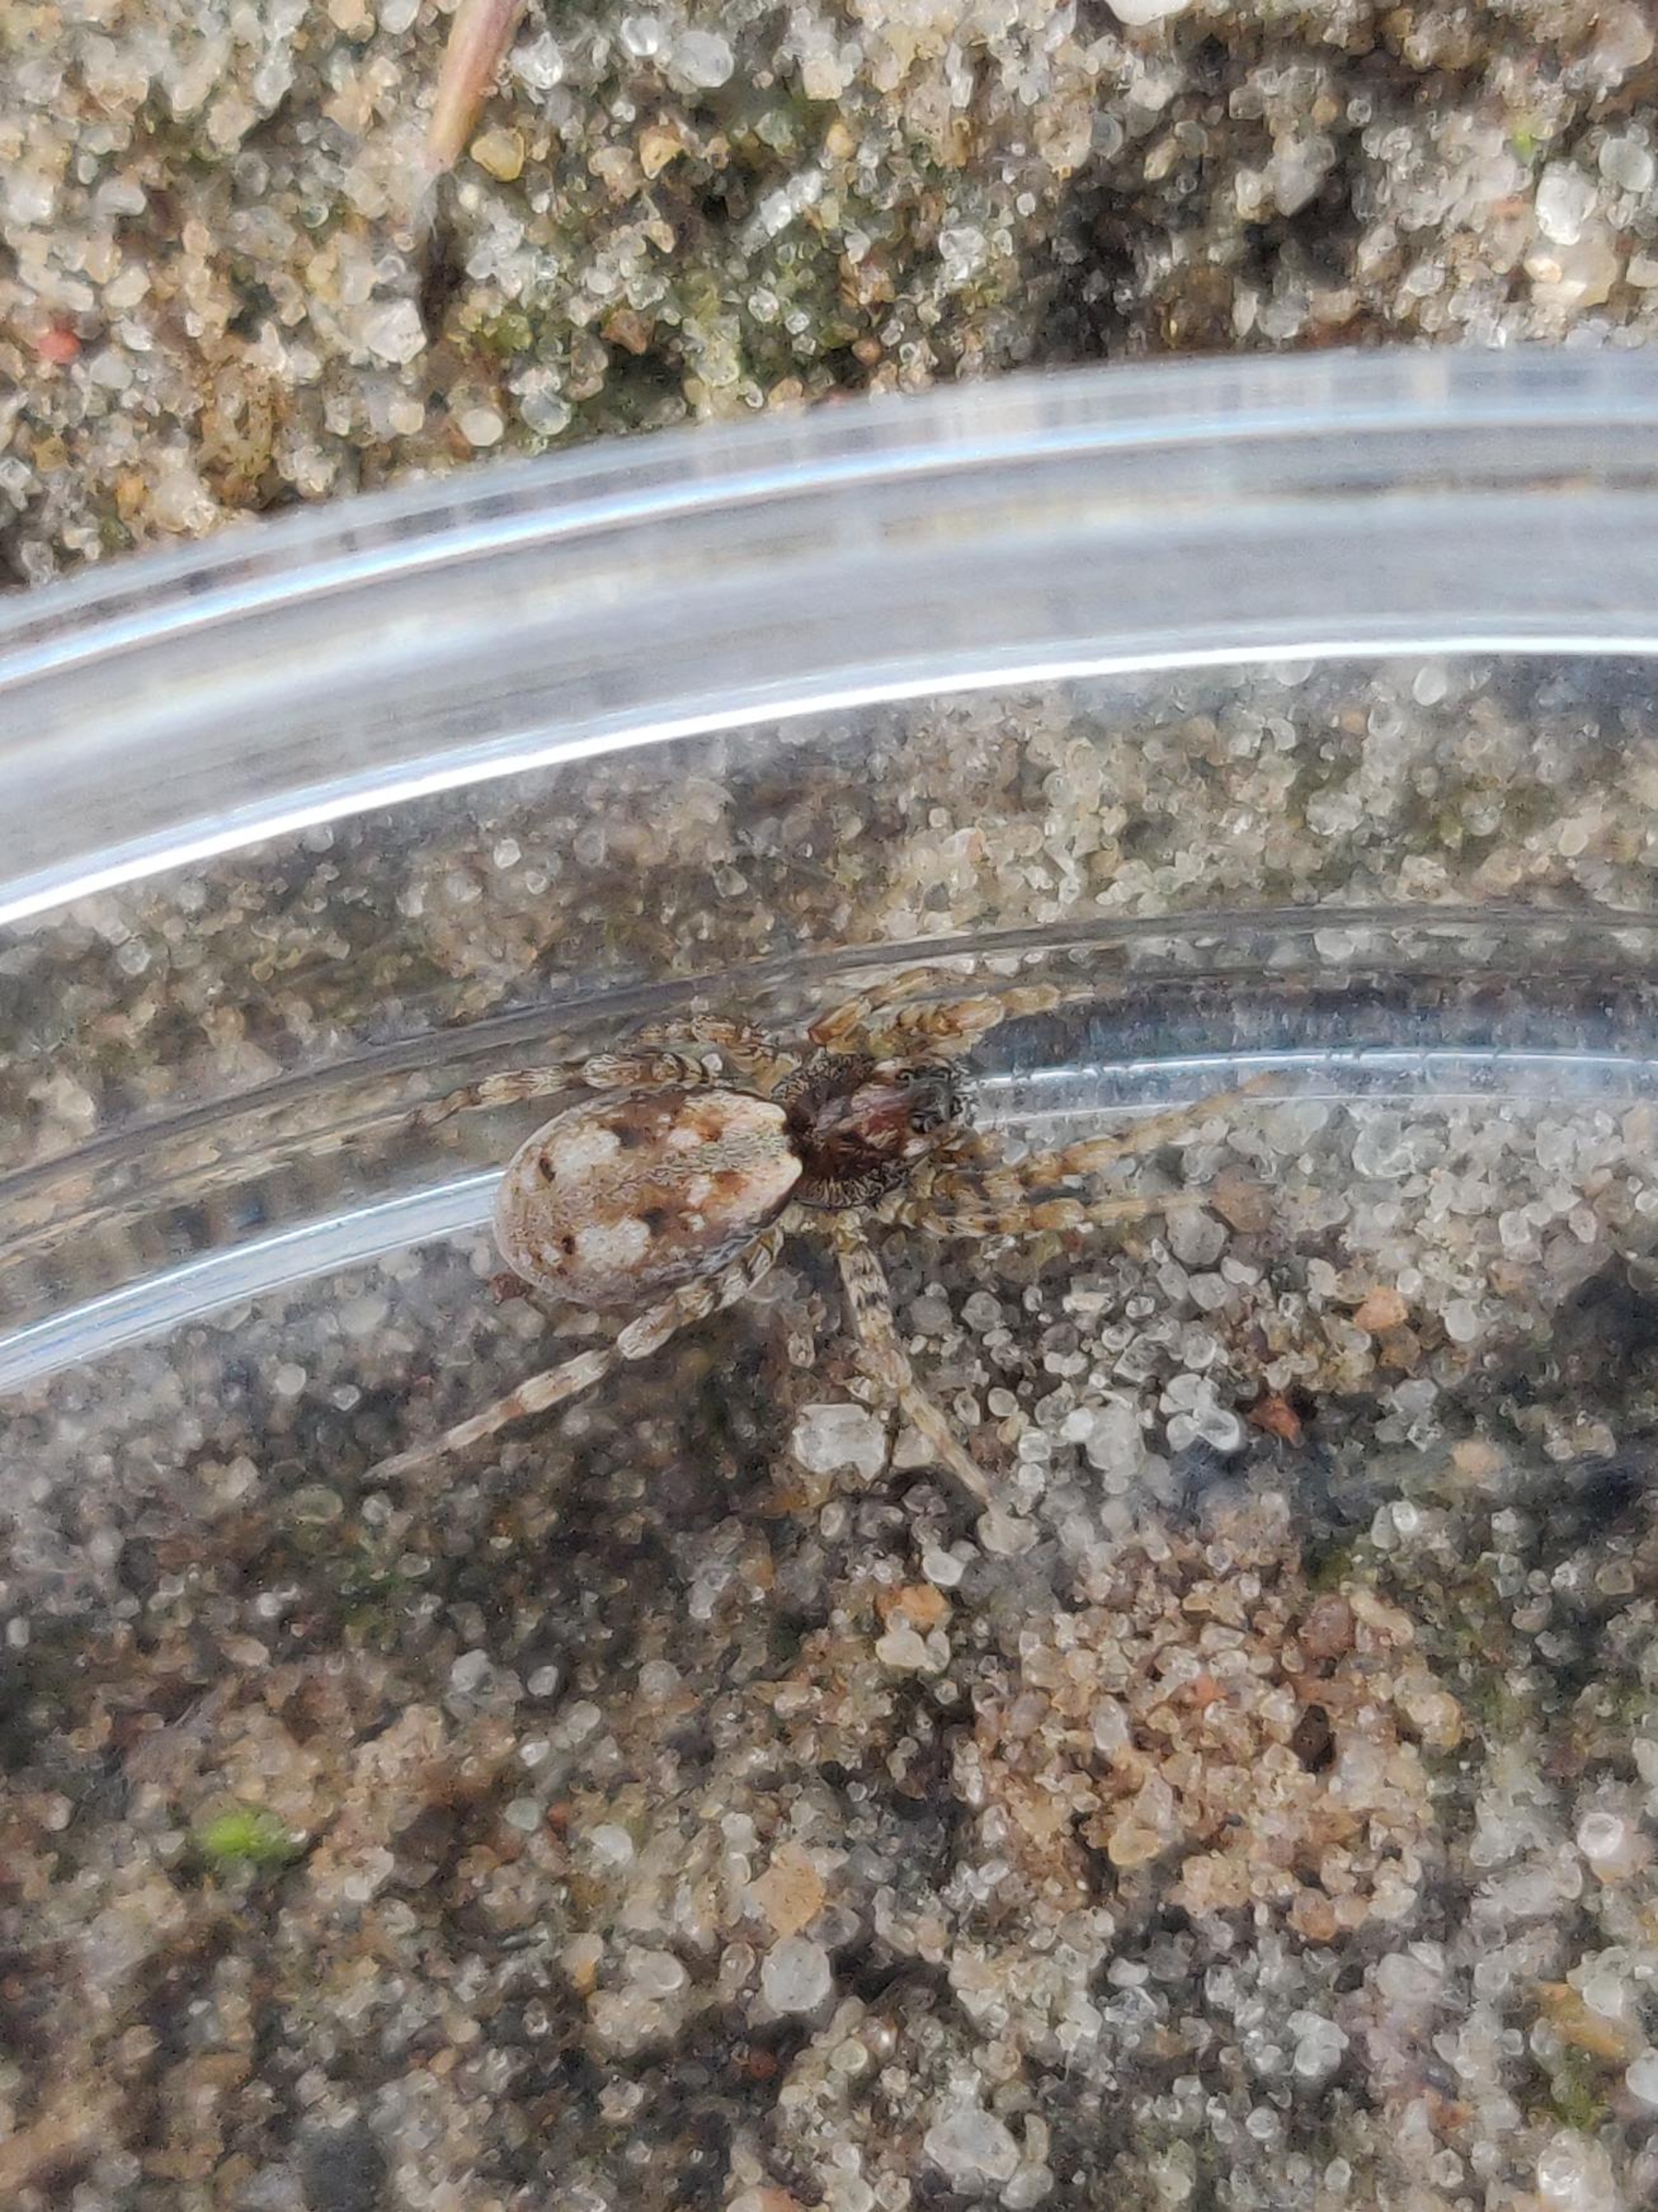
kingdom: Animalia
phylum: Arthropoda
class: Arachnida
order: Araneae
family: Lycosidae
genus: Arctosa
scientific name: Arctosa perita
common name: Klitgraveedderkop
